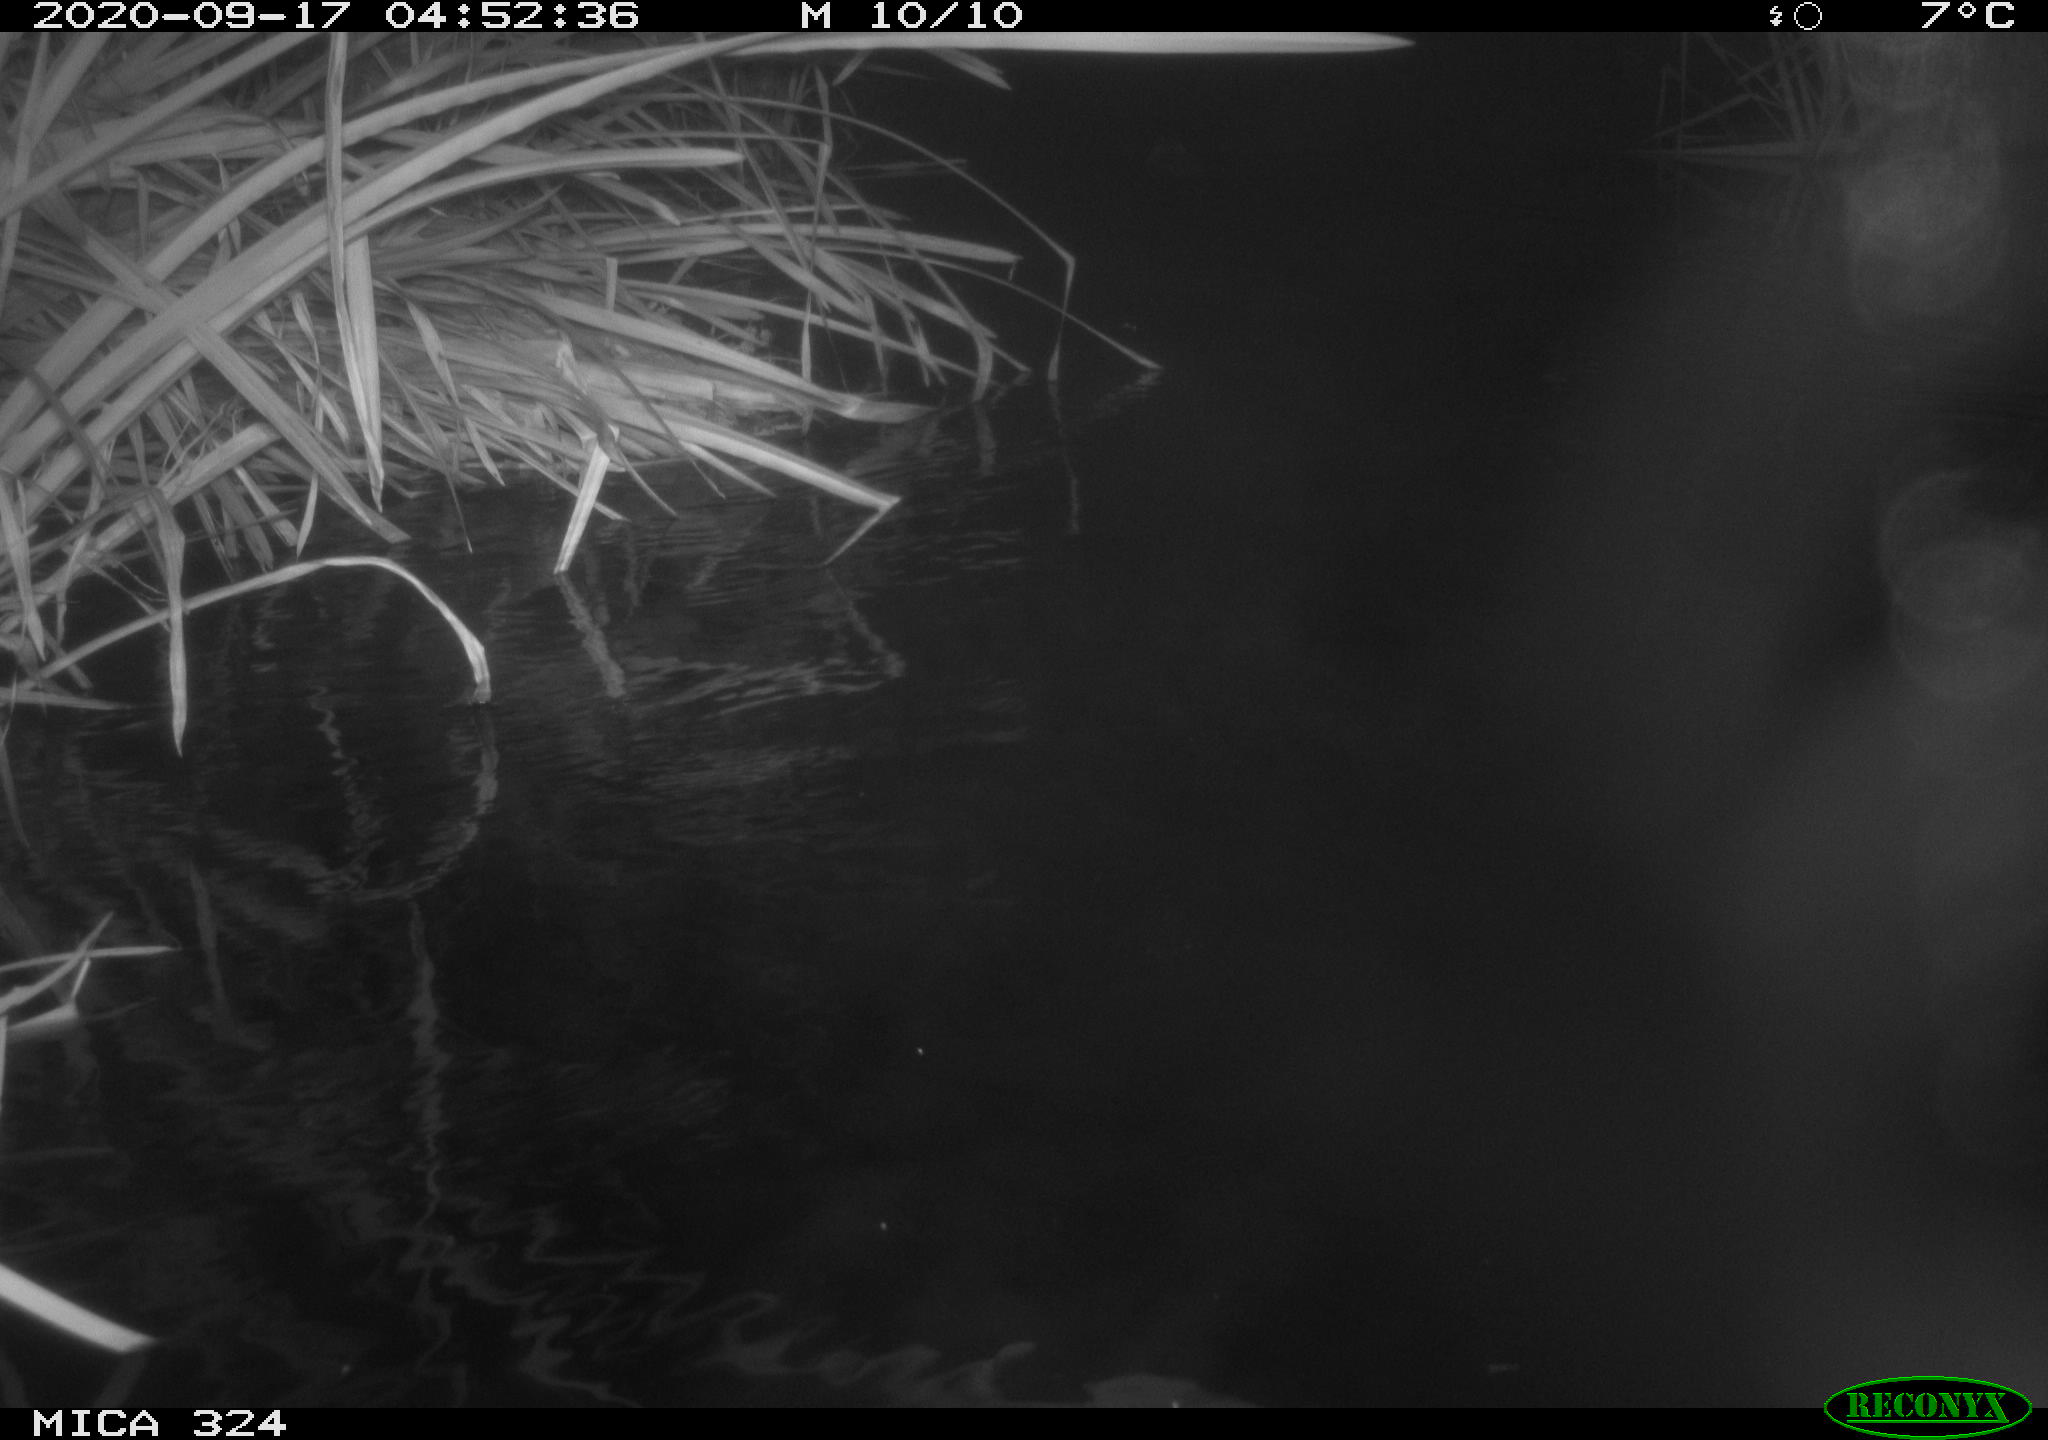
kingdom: Animalia
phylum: Chordata
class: Mammalia
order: Rodentia
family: Myocastoridae
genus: Myocastor
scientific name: Myocastor coypus
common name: Coypu
